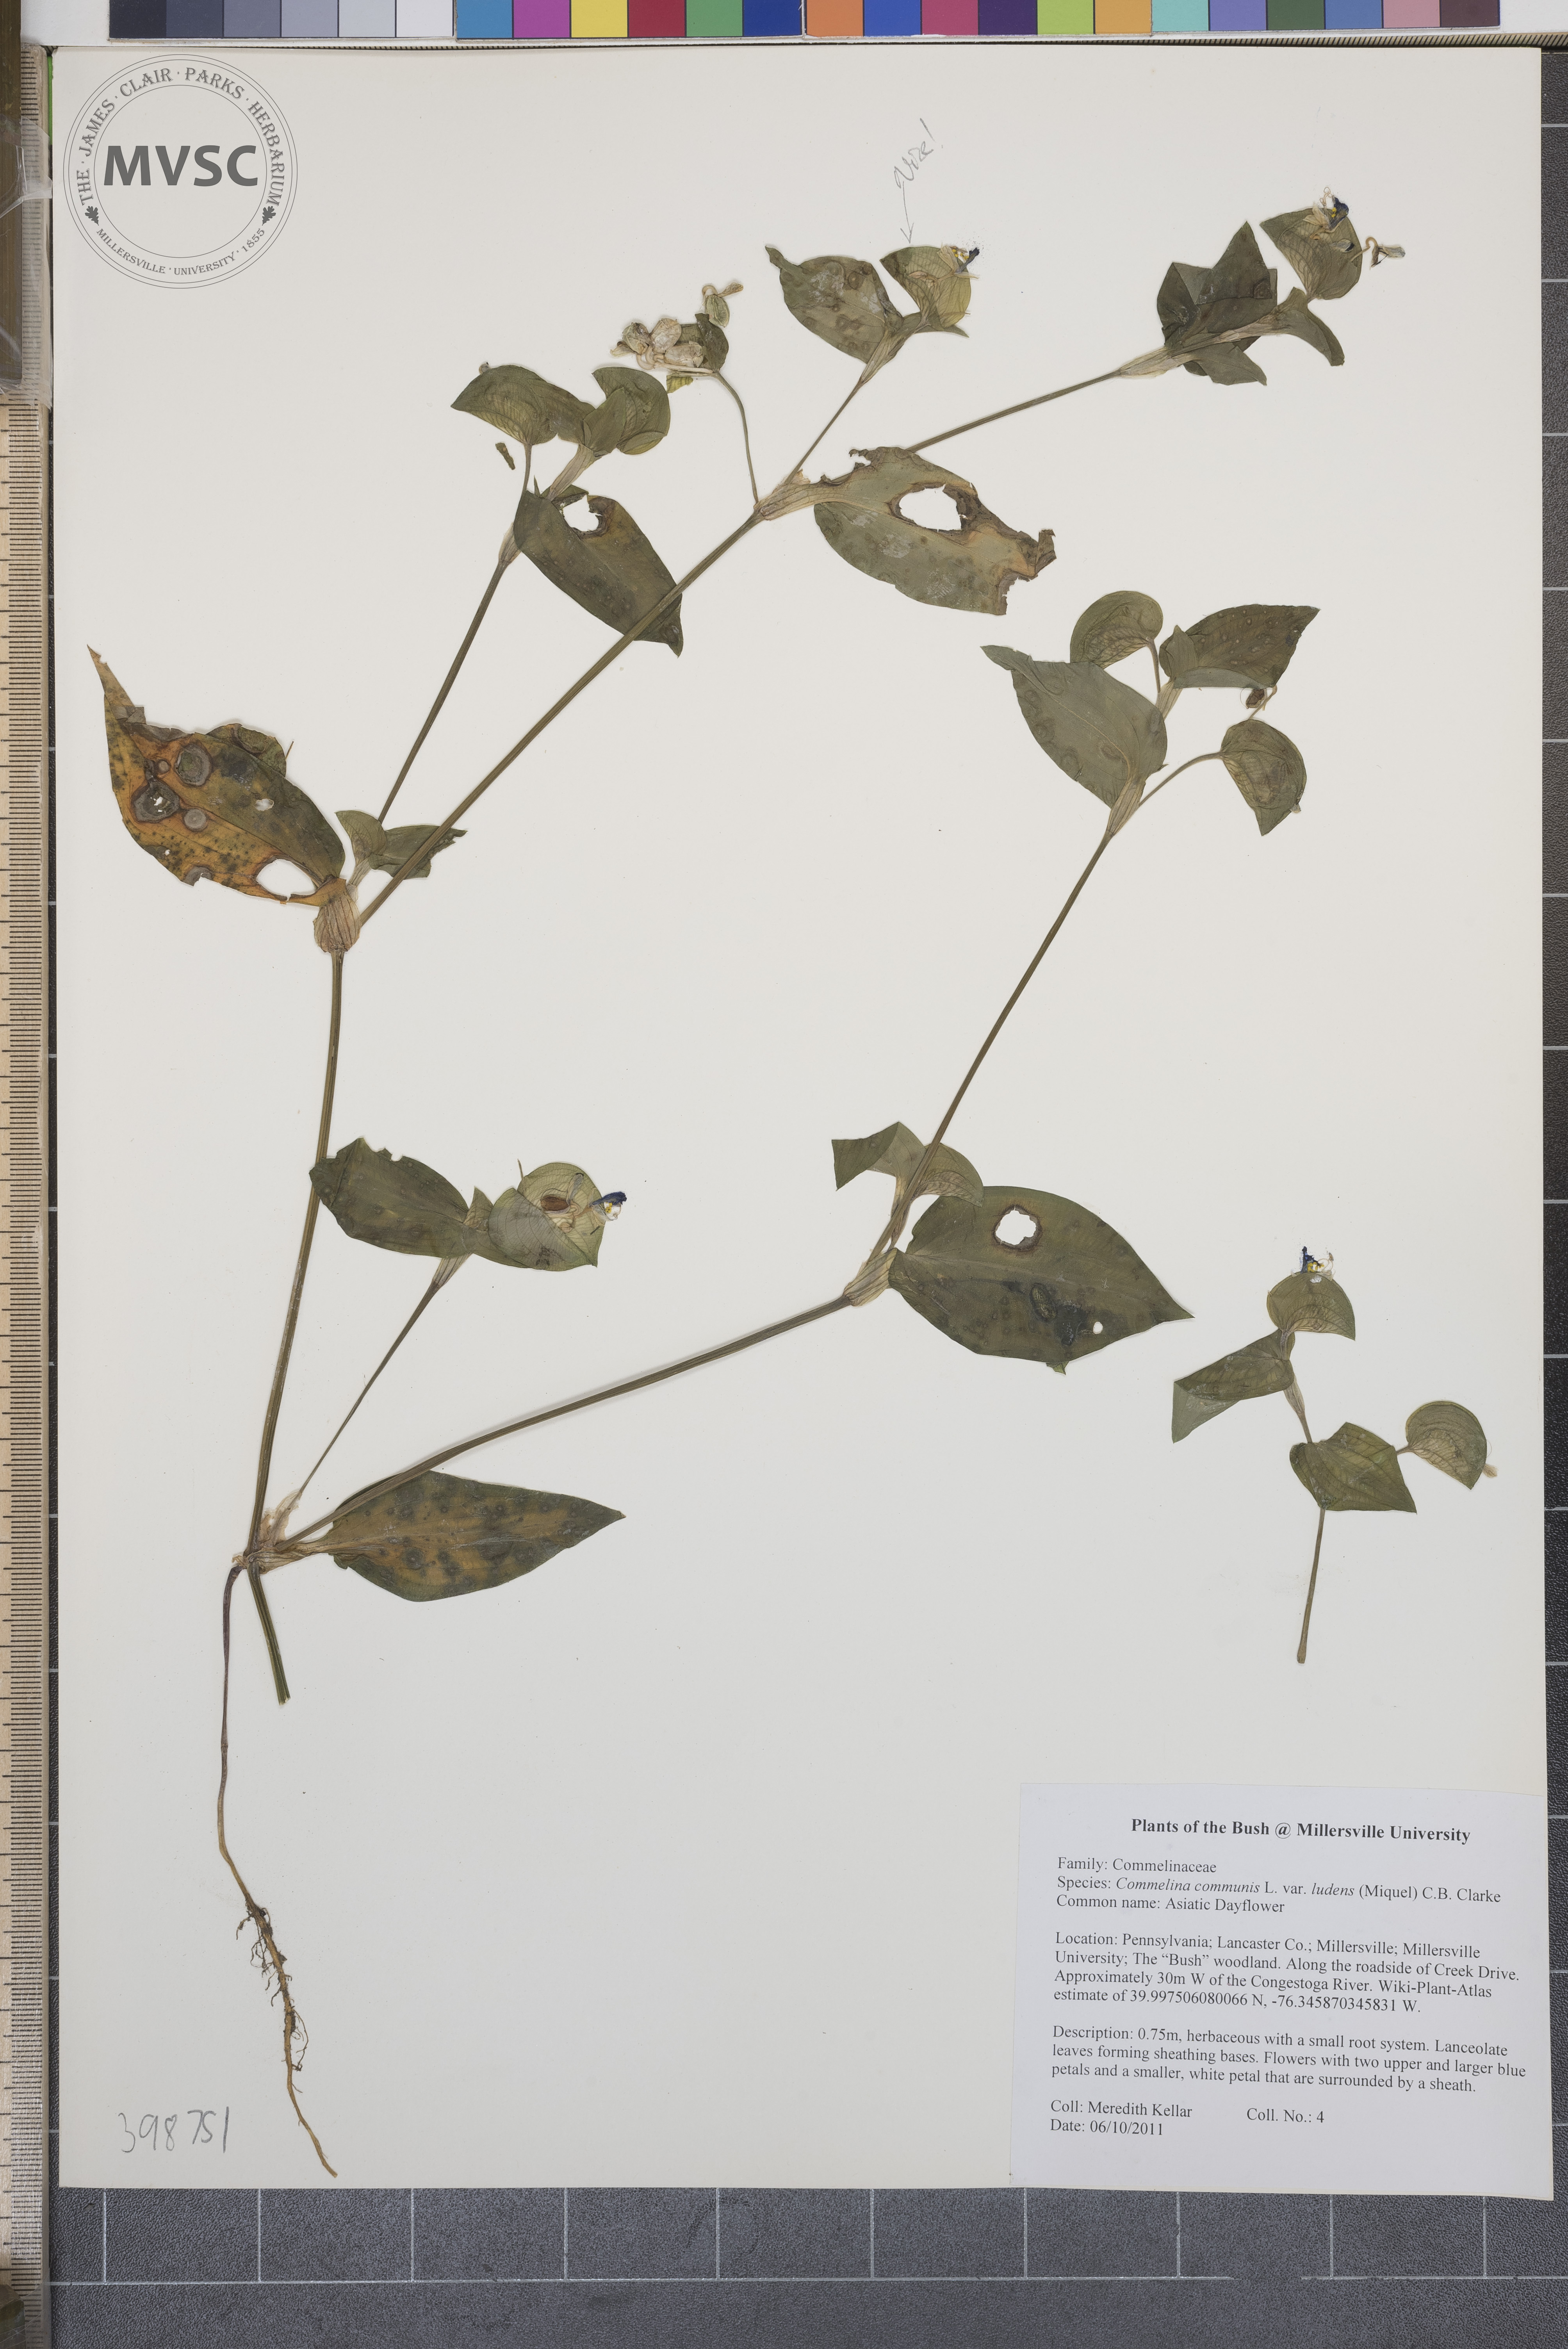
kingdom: Plantae
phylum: Tracheophyta
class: Liliopsida
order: Commelinales
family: Commelinaceae
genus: Commelina
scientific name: Commelina communis
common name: Asiatic dayflower
